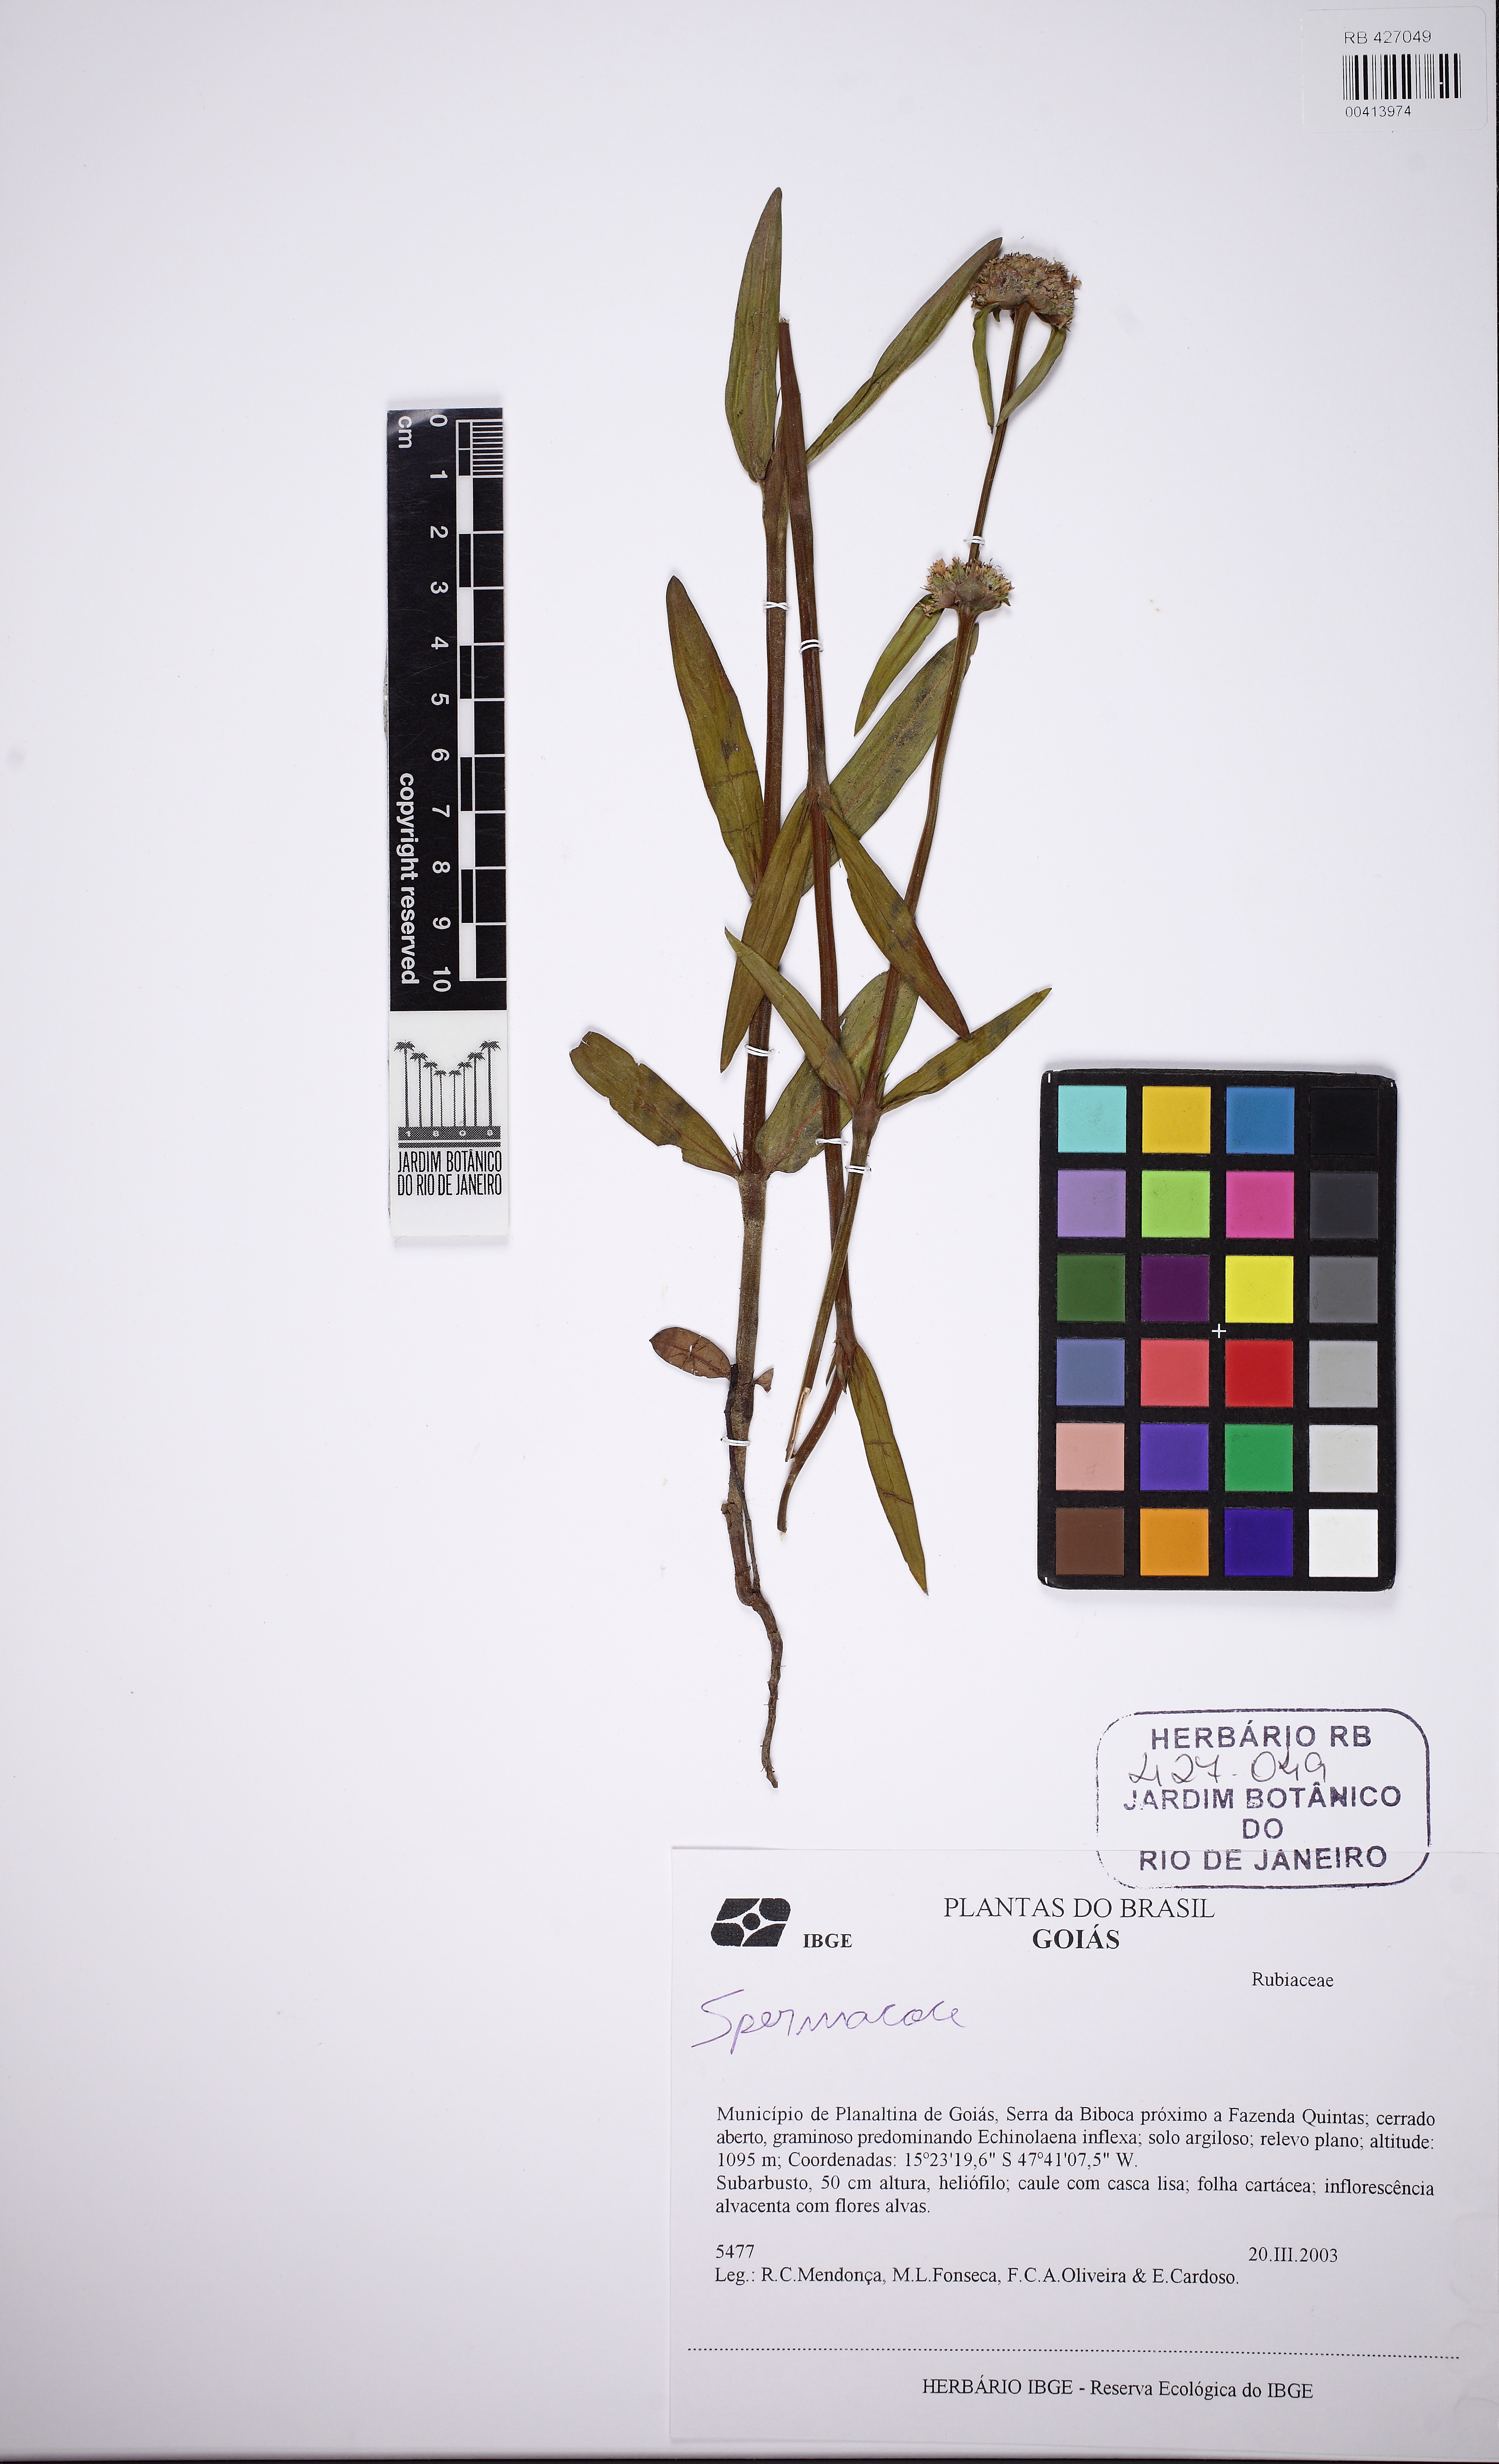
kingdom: Plantae
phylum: Tracheophyta
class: Magnoliopsida
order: Gentianales
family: Rubiaceae
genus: Spermacoce
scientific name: Spermacoce warmingii
